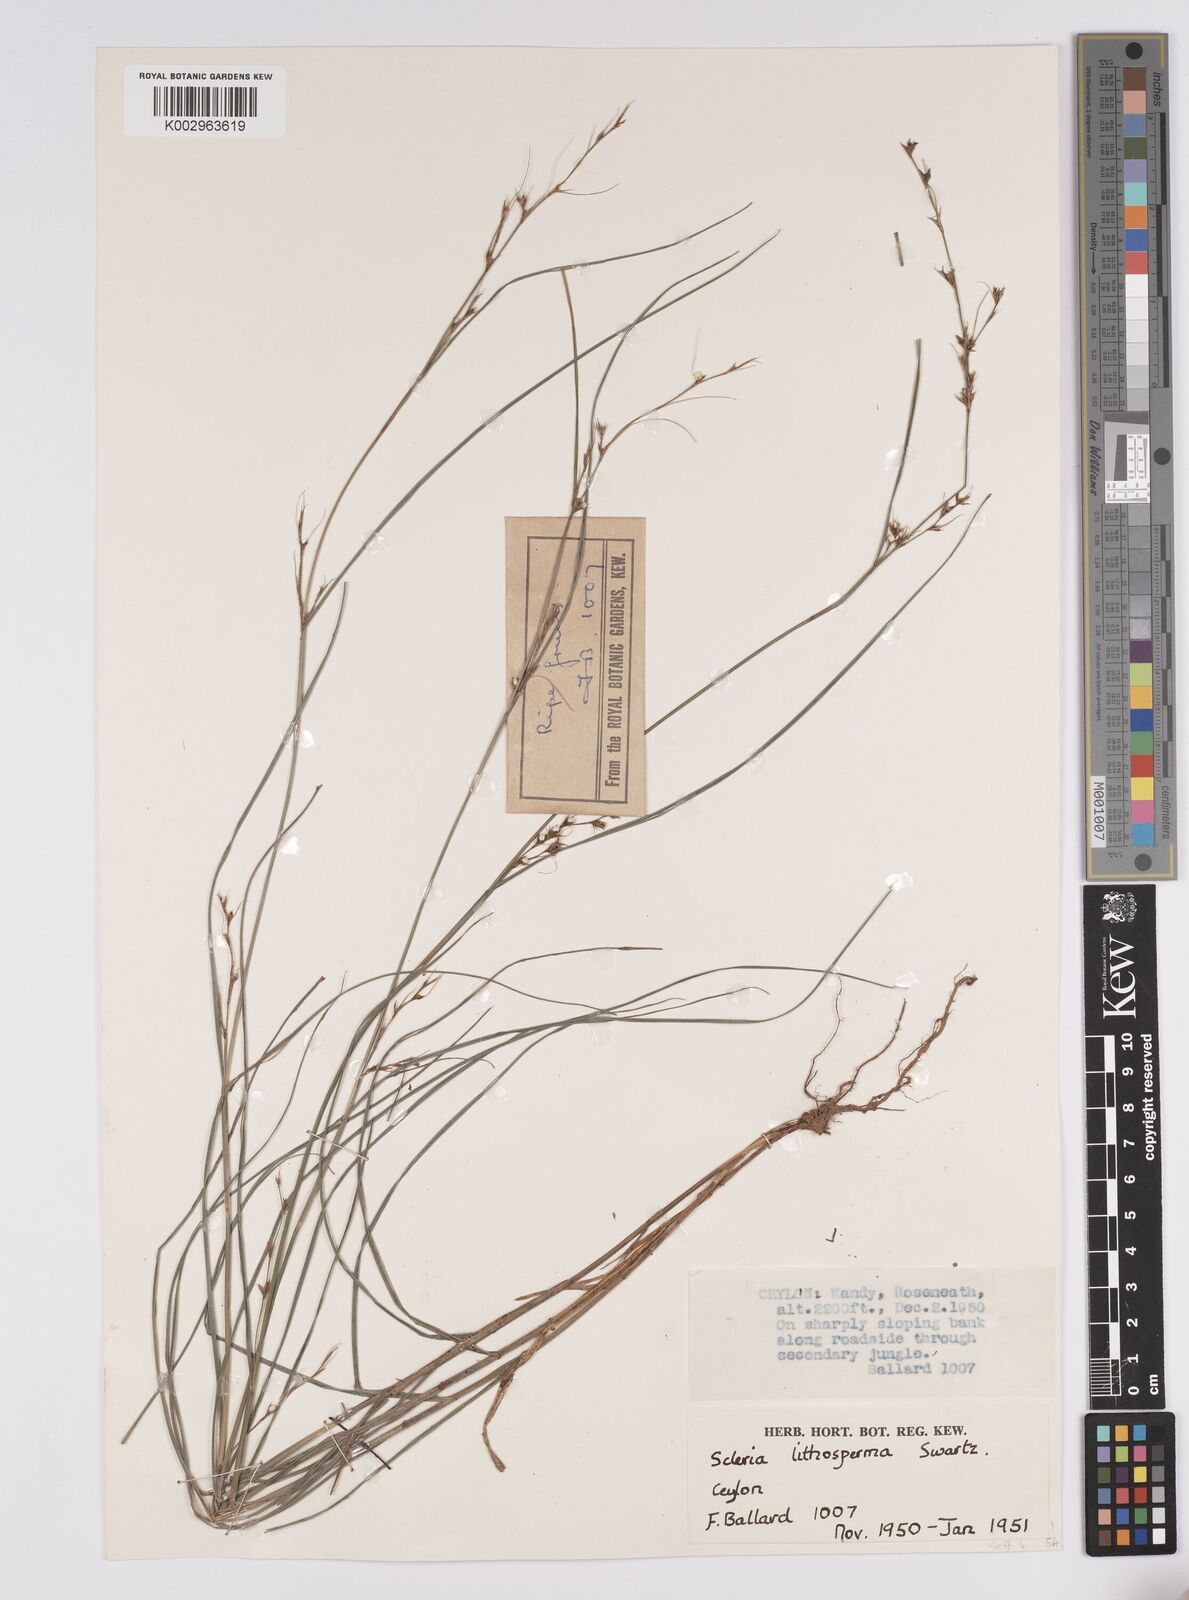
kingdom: Plantae
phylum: Tracheophyta
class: Liliopsida
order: Poales
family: Cyperaceae
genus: Scleria
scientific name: Scleria lithosperma
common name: Florida keys nut-rush
